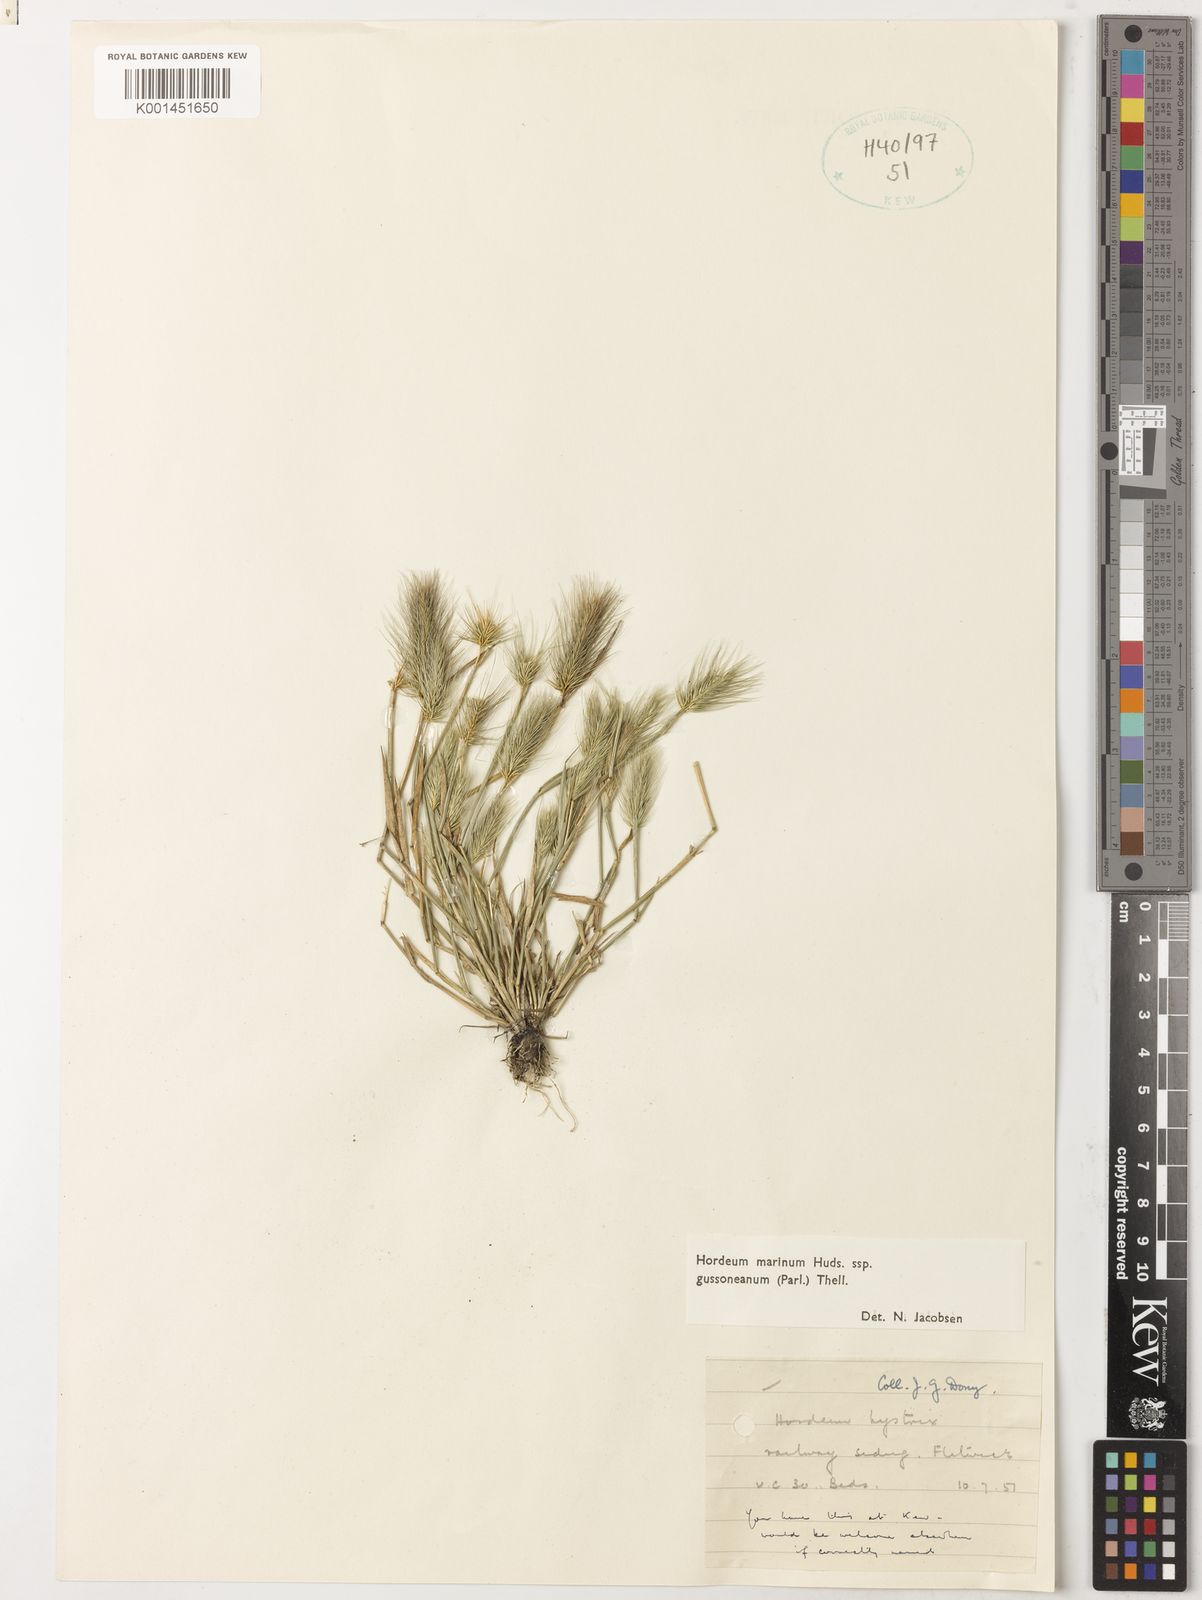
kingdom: Plantae
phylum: Tracheophyta
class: Liliopsida
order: Poales
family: Poaceae
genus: Hordeum
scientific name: Hordeum marinum
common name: Sea barley
